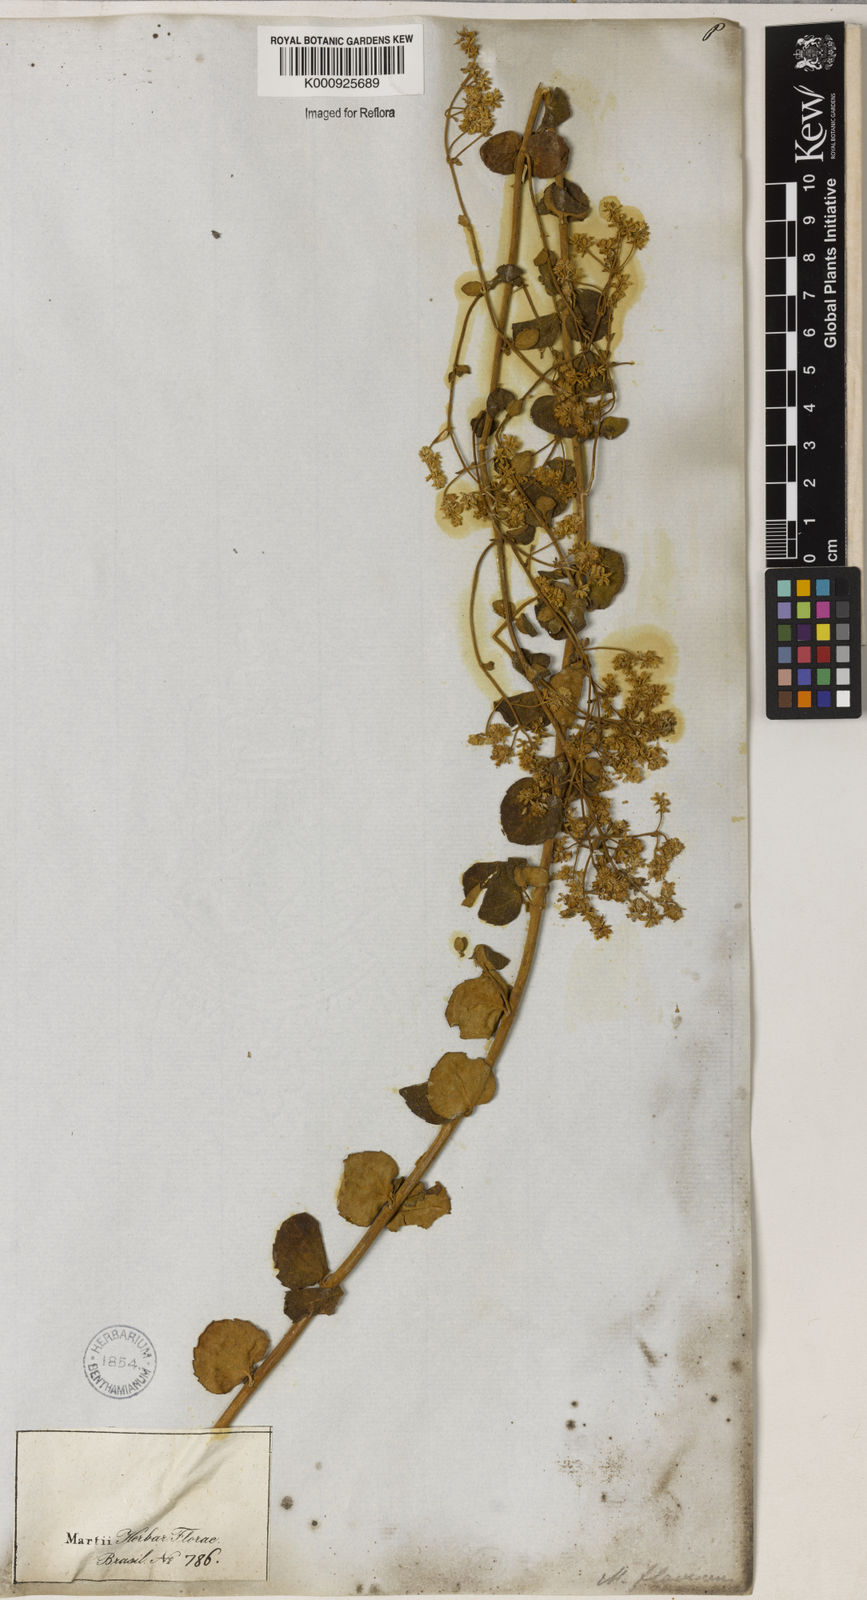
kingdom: Plantae
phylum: Tracheophyta
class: Magnoliopsida
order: Asterales
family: Asteraceae
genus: Mikania
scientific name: Mikania nummularia
